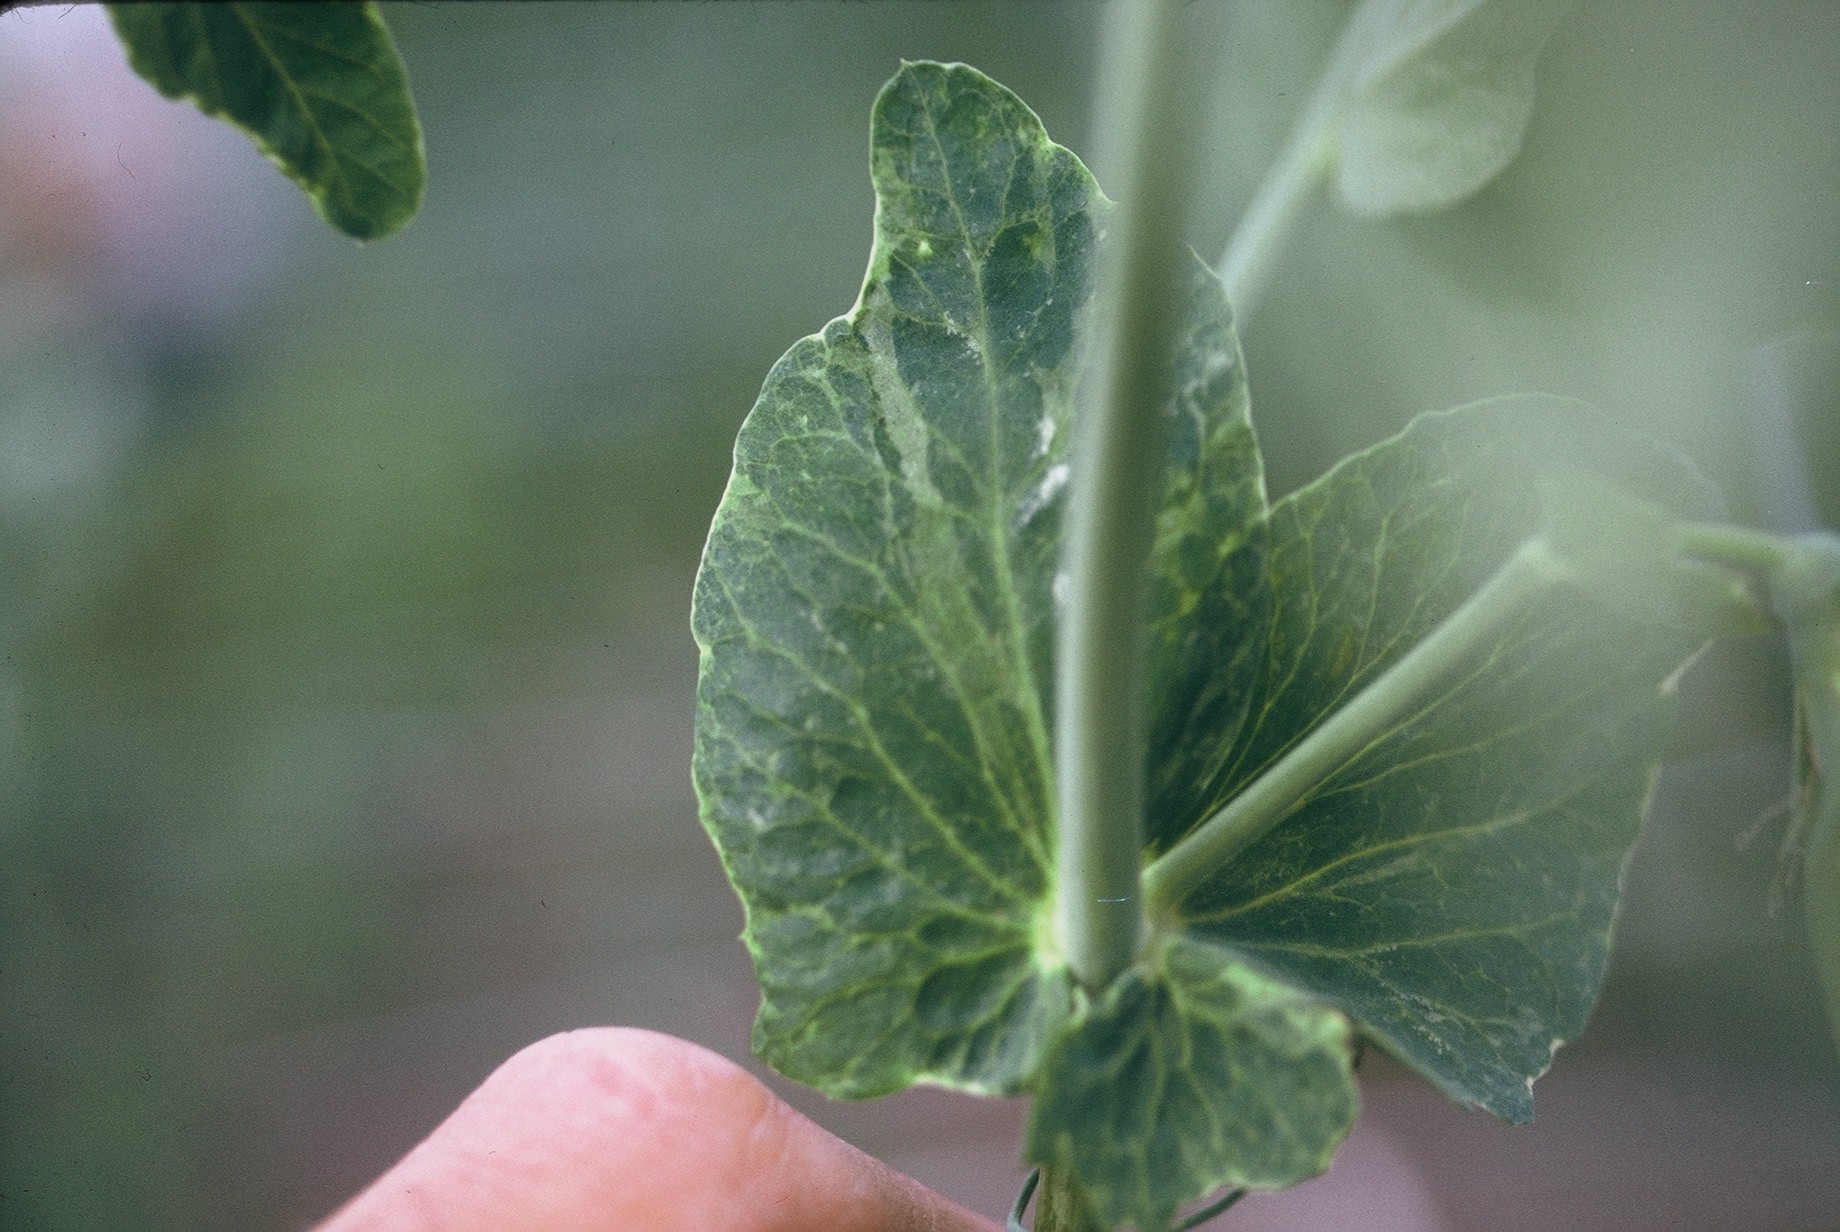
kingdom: Plantae
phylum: Tracheophyta
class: Magnoliopsida
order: Fabales
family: Fabaceae
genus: Lathyrus
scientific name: Lathyrus oleraceus
